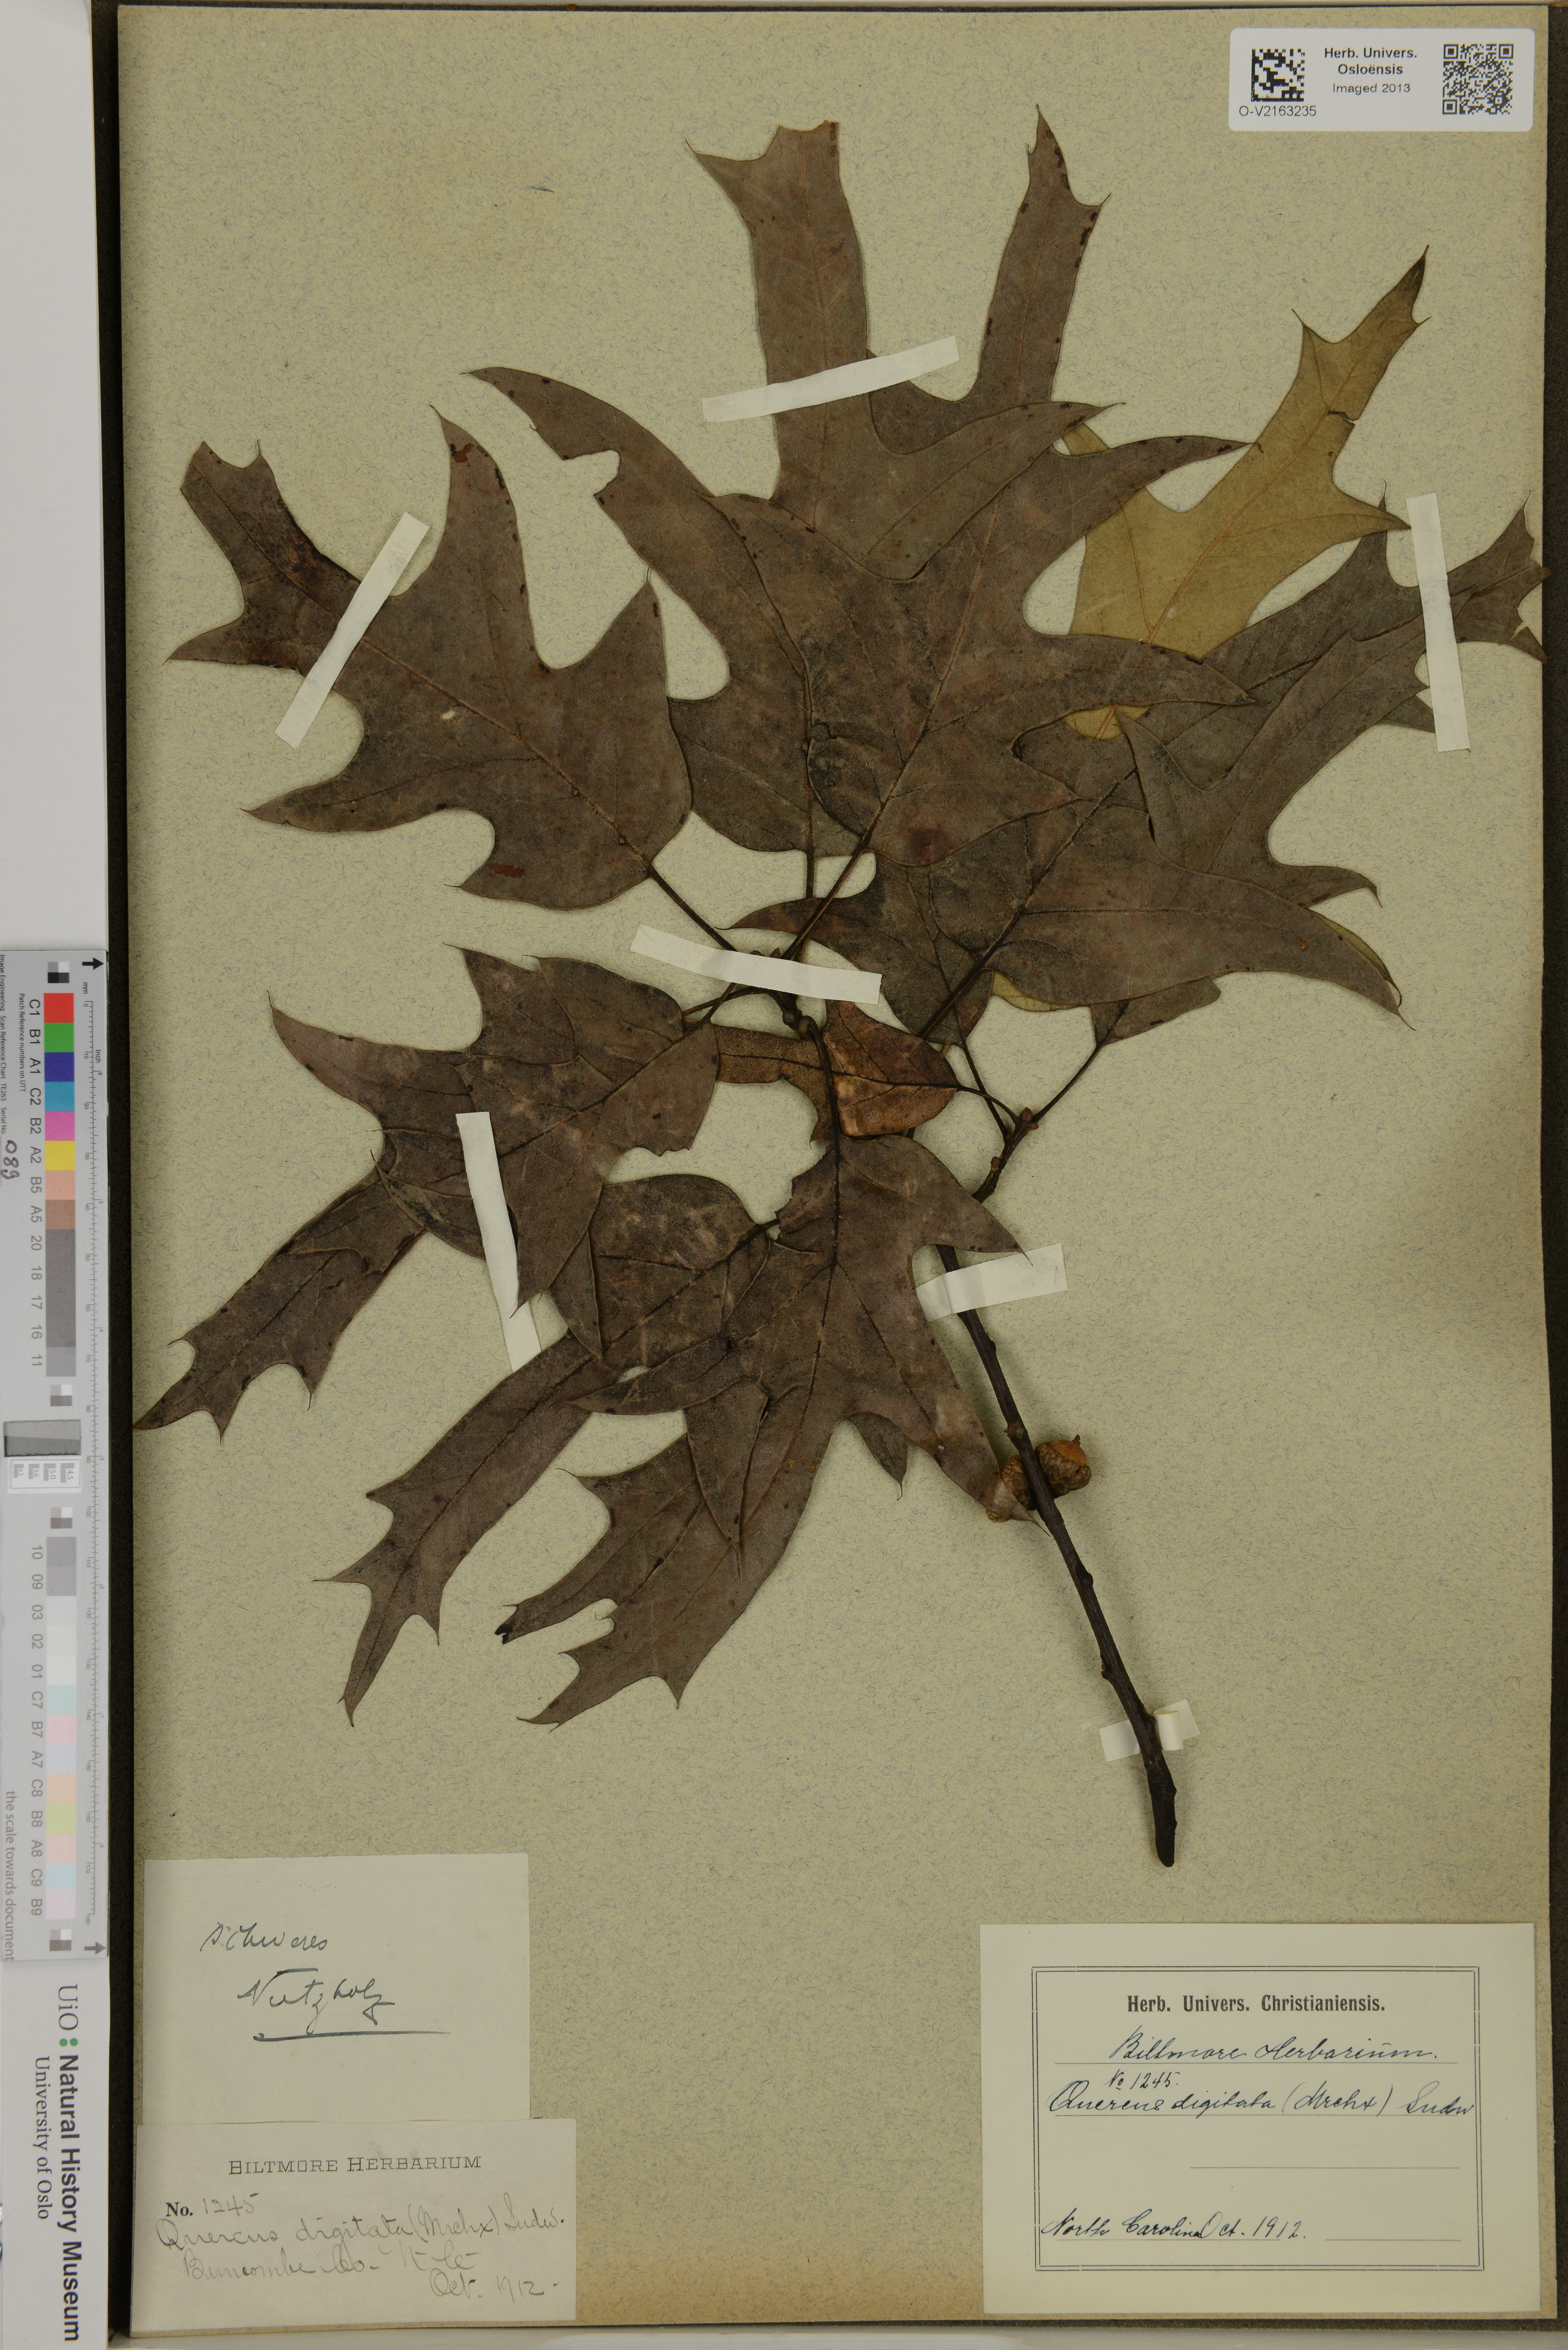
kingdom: Plantae
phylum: Tracheophyta
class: Magnoliopsida
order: Fagales
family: Fagaceae
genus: Quercus
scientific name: Quercus falcata
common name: Southern red oak
